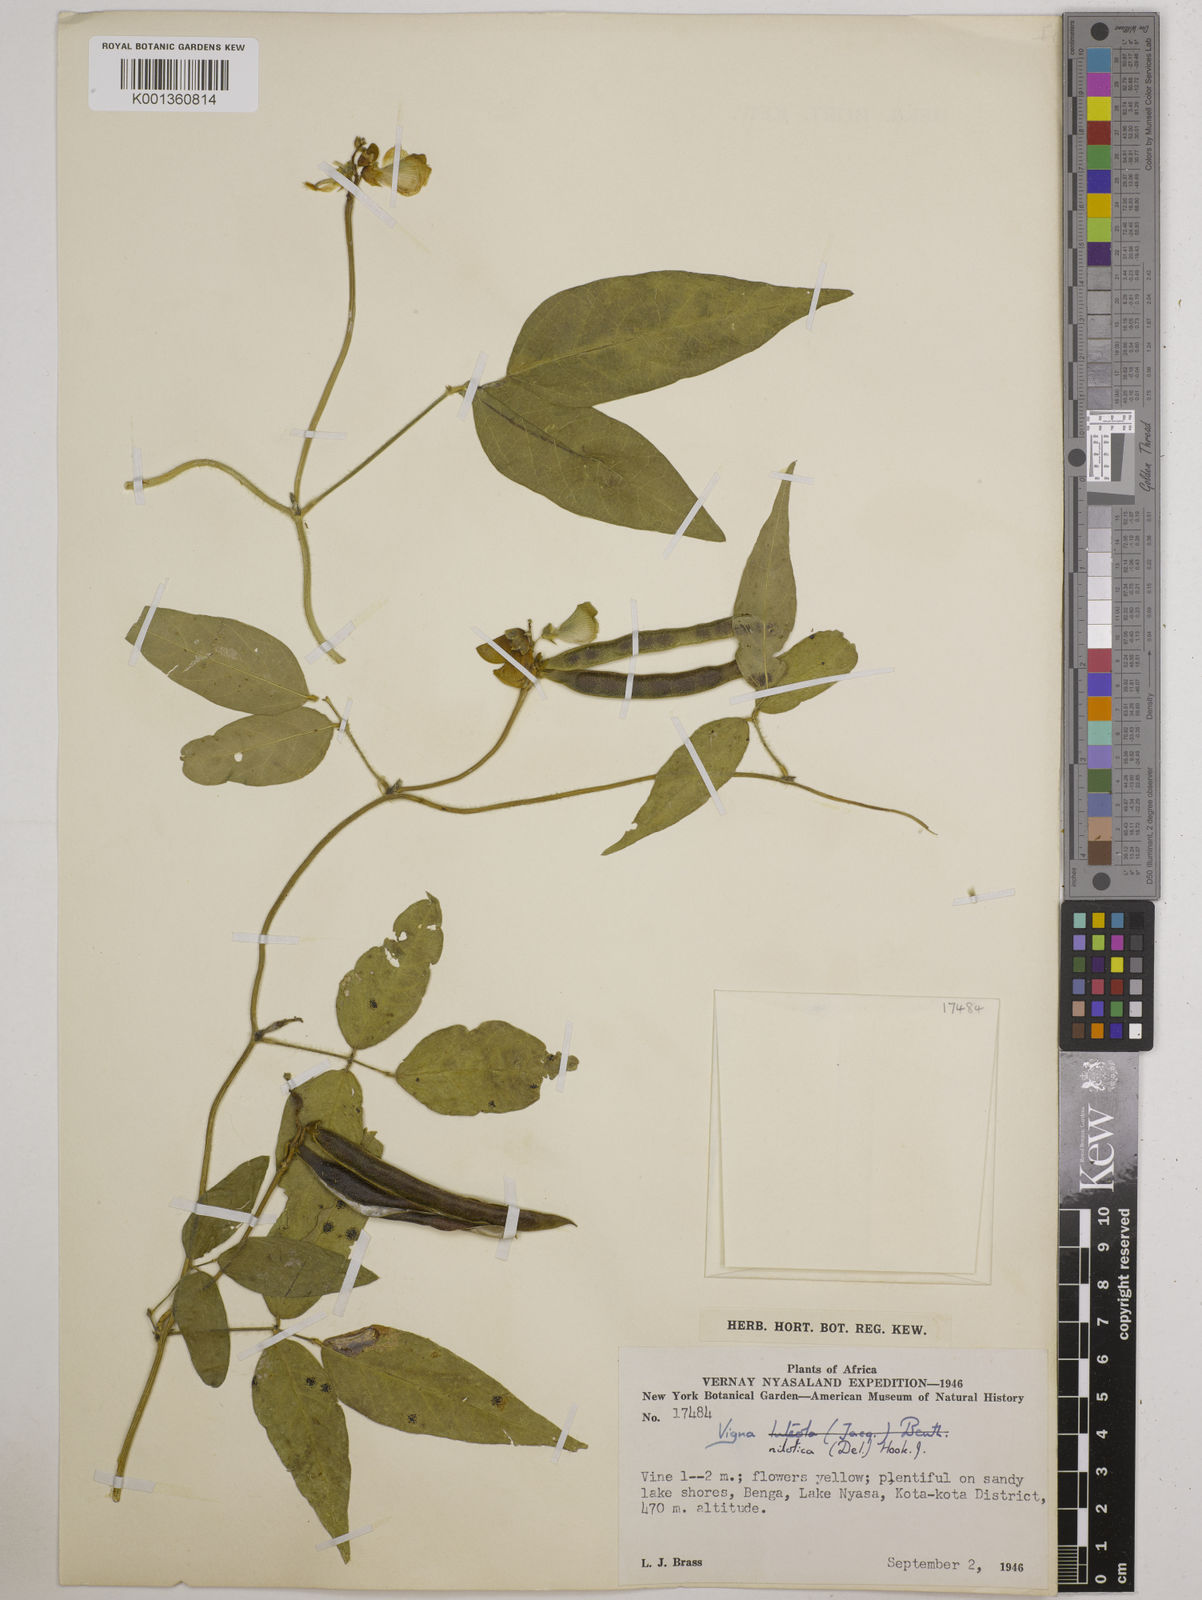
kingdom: Plantae
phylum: Tracheophyta
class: Magnoliopsida
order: Fabales
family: Fabaceae
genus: Vigna
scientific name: Vigna luteola
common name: Hairypod cowpea
